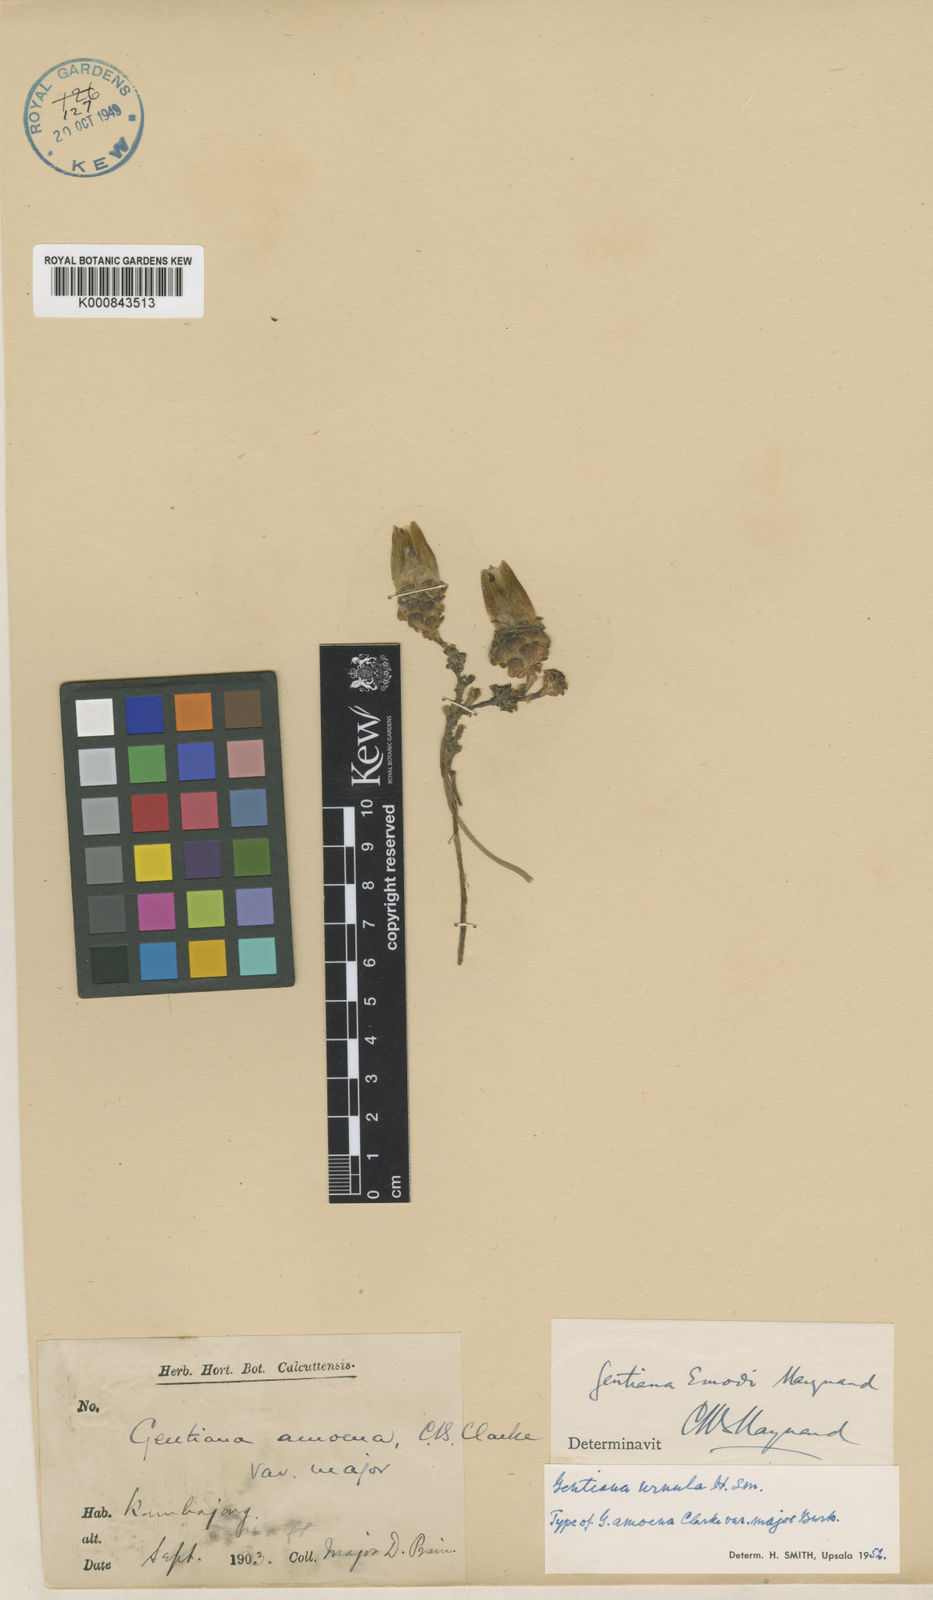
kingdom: Plantae
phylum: Tracheophyta
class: Magnoliopsida
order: Gentianales
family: Gentianaceae
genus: Gentiana
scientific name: Gentiana urnula
